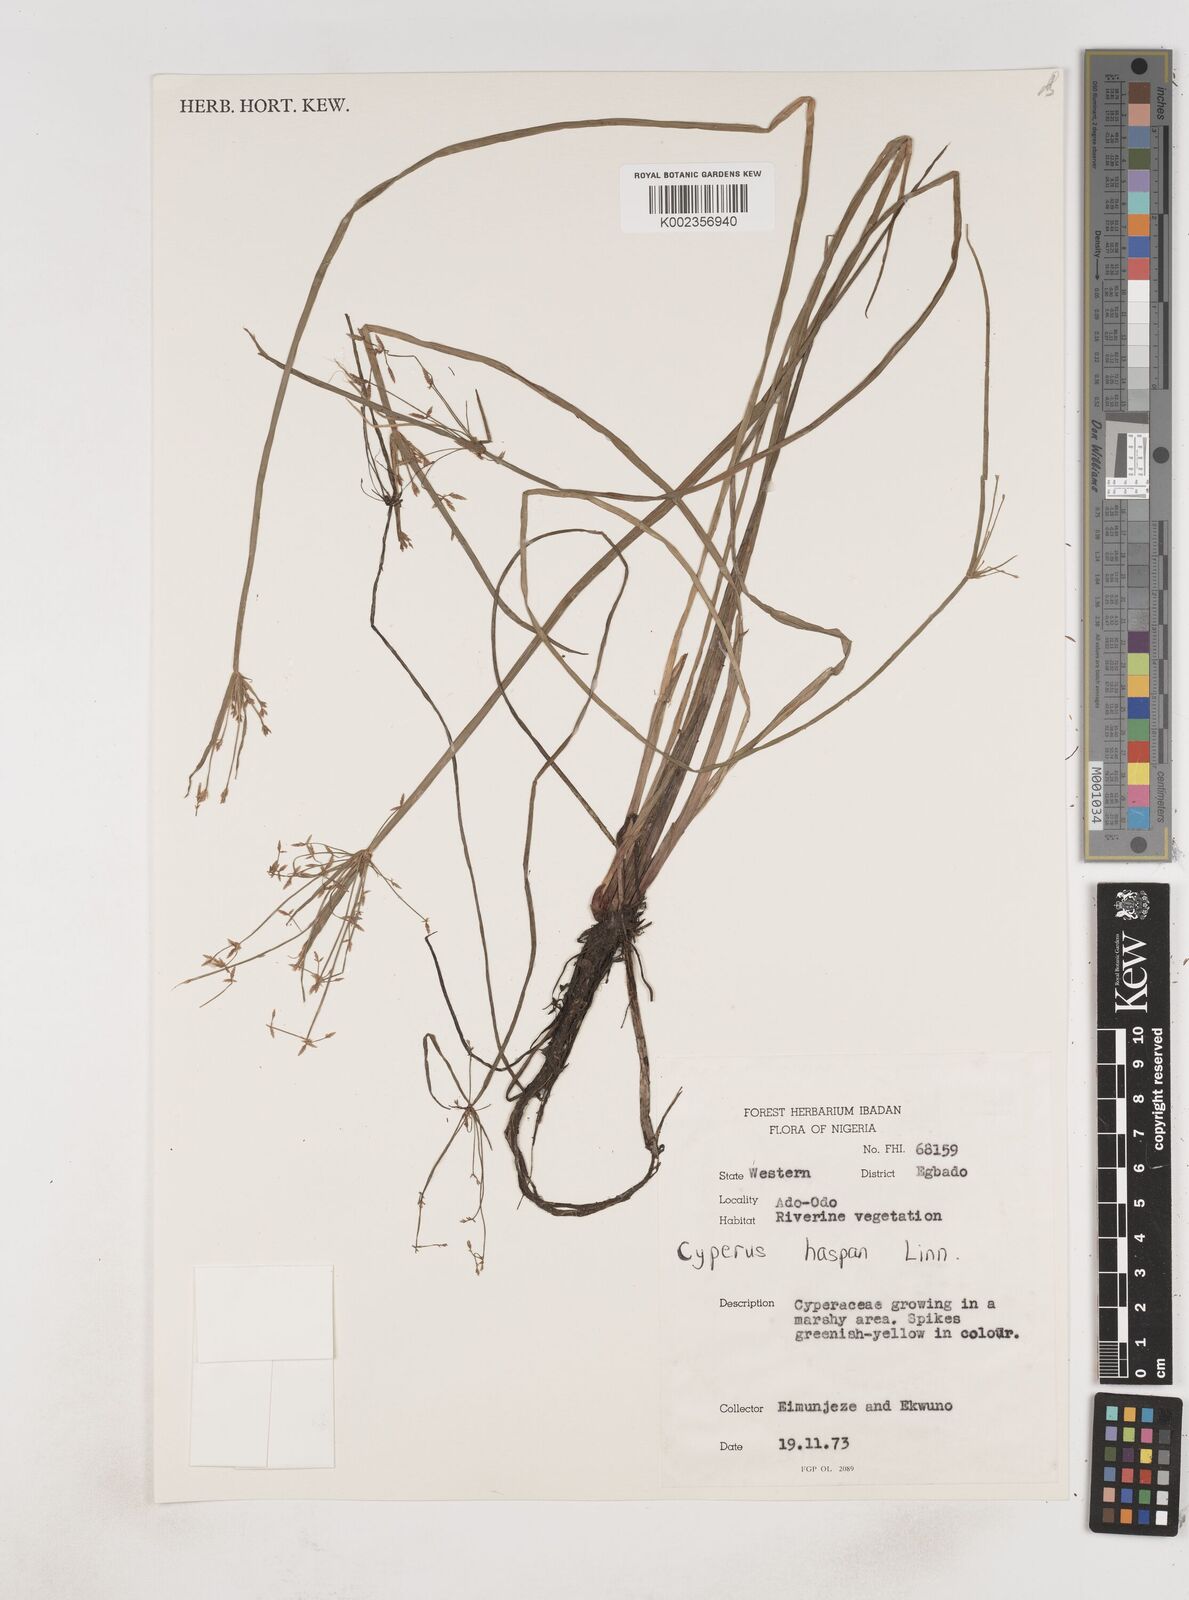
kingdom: Plantae
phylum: Tracheophyta
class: Liliopsida
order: Poales
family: Cyperaceae
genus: Cyperus
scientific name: Cyperus haspan
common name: Haspan flatsedge
